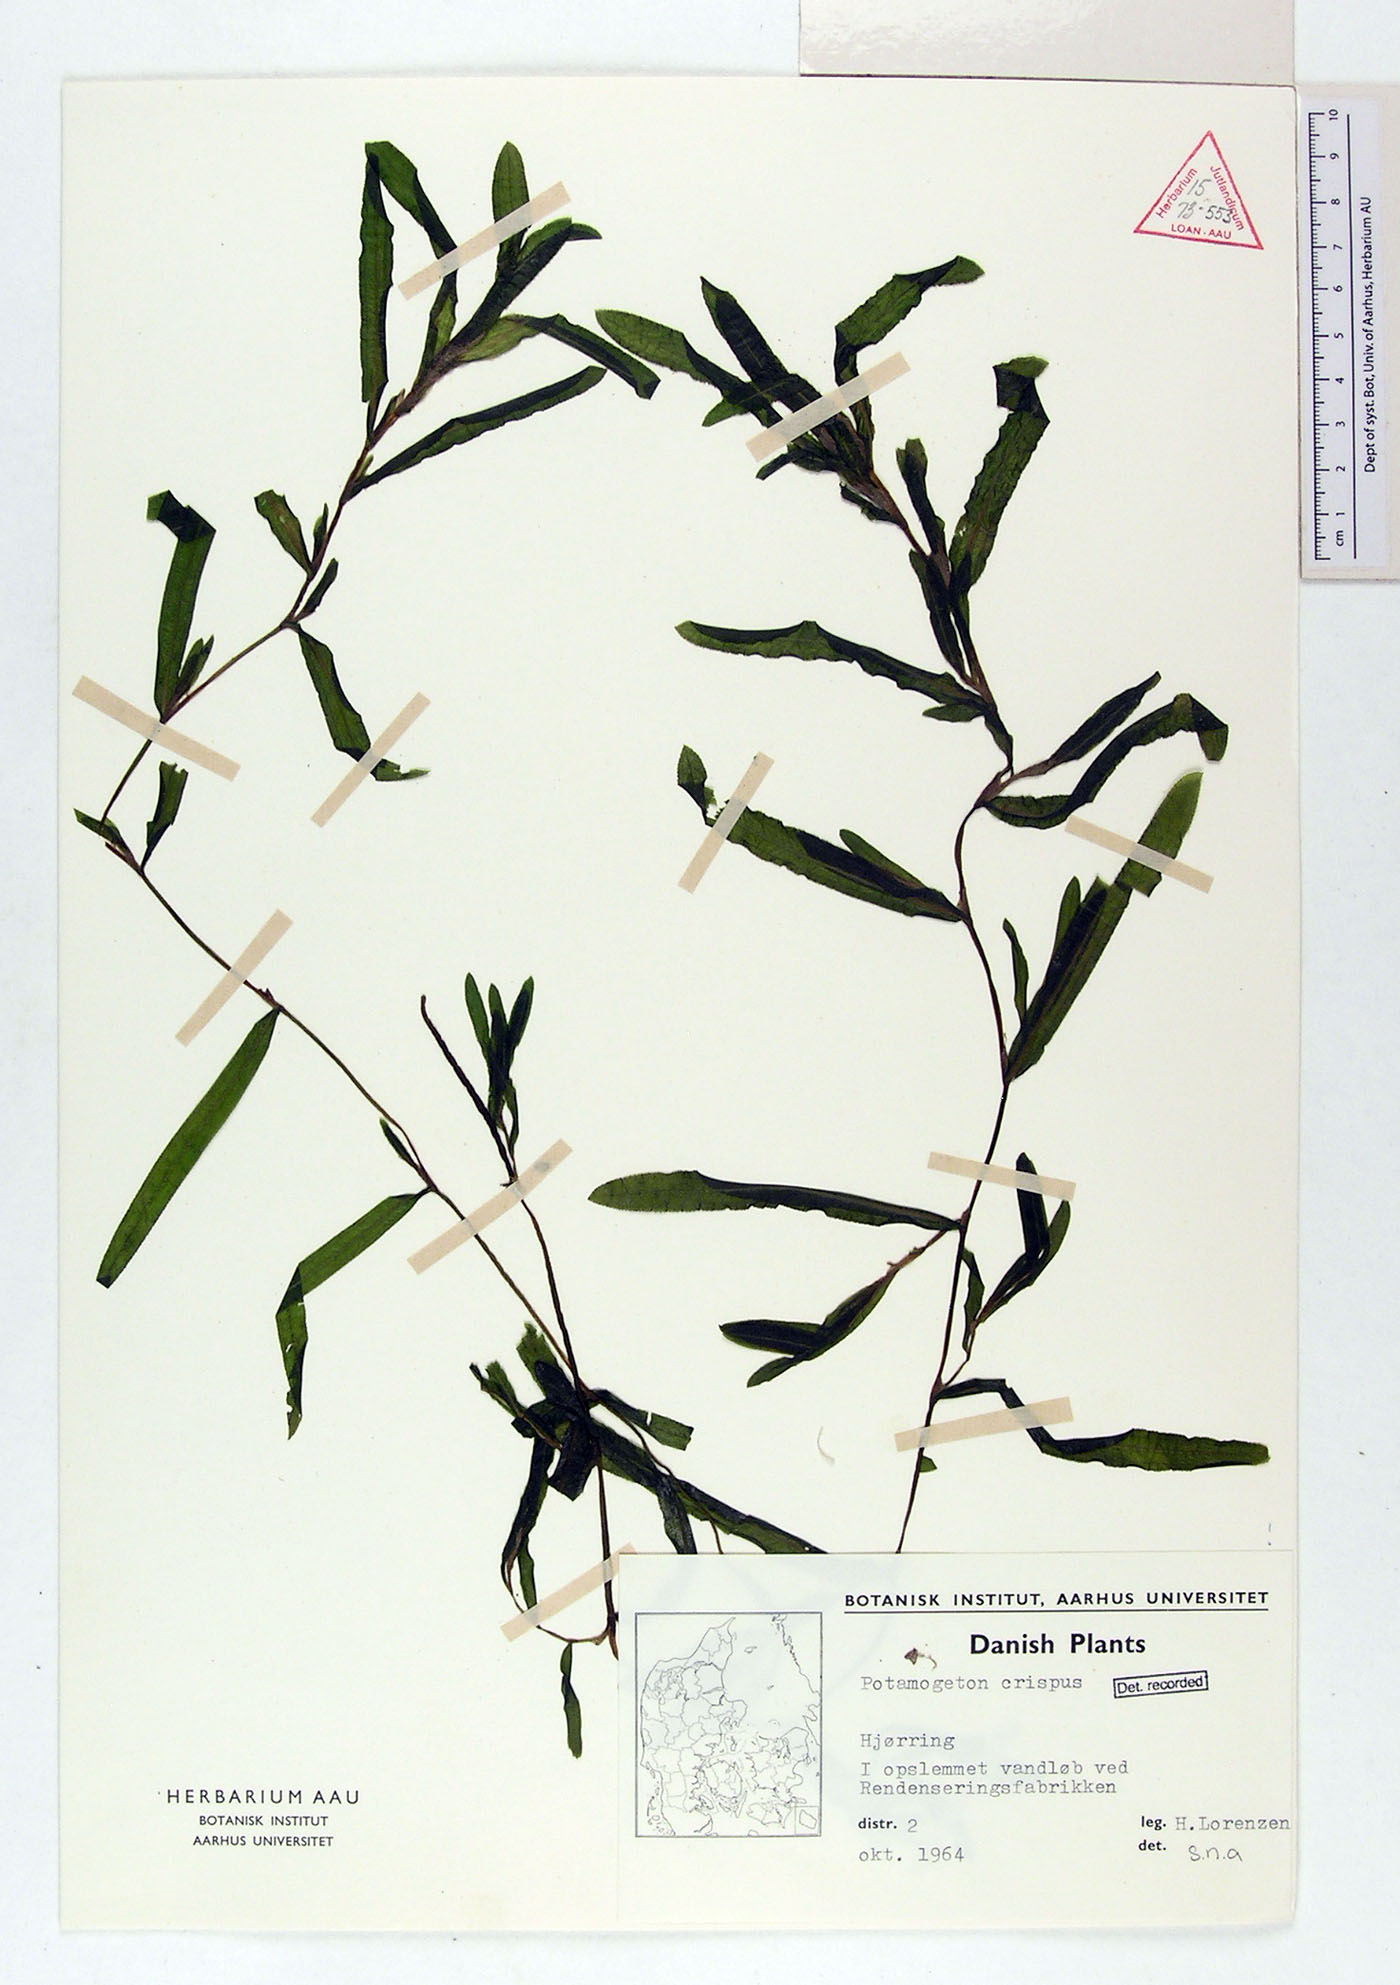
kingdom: Plantae
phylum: Tracheophyta
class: Liliopsida
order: Alismatales
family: Potamogetonaceae
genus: Potamogeton
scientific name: Potamogeton crispus
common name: Curled pondweed
